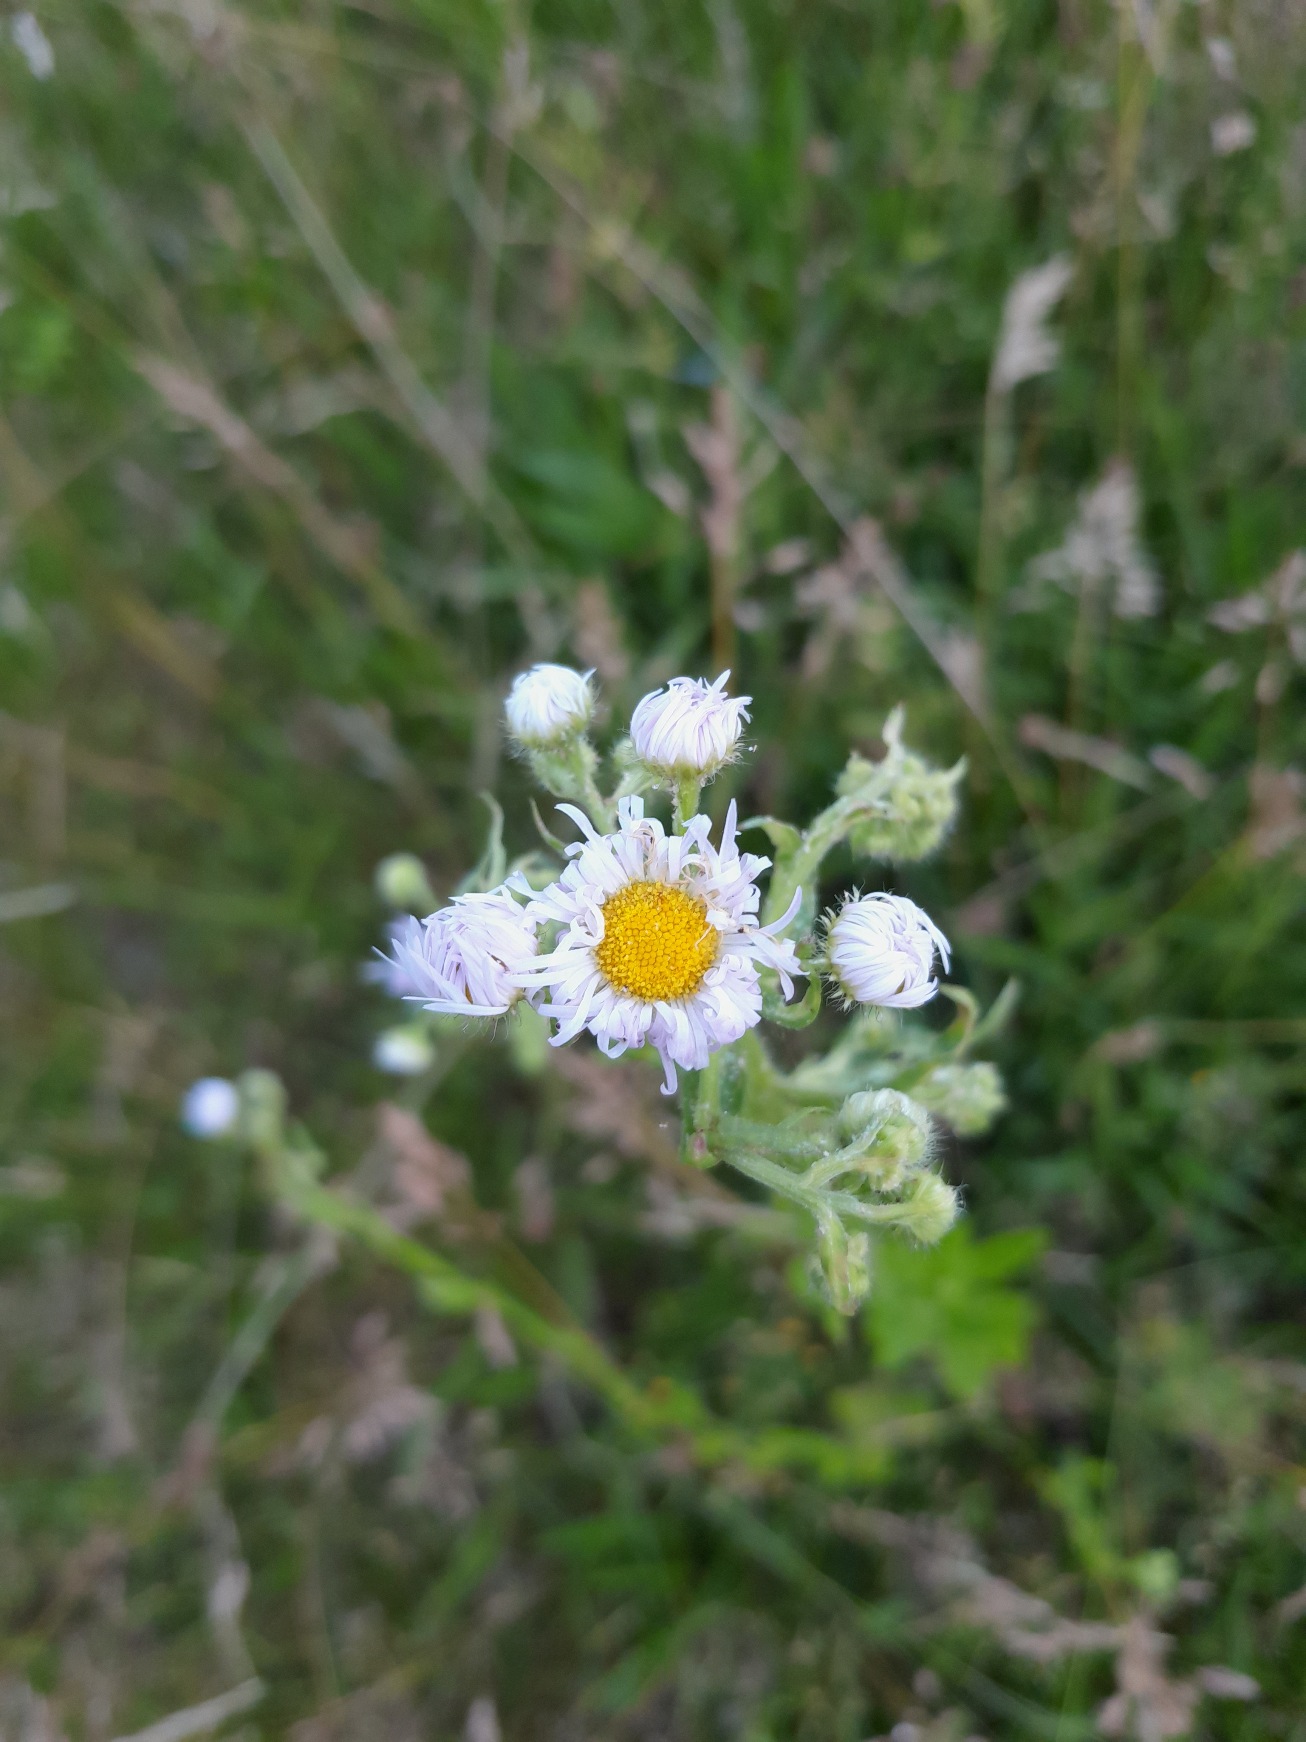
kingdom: Plantae
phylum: Tracheophyta
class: Magnoliopsida
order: Asterales
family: Asteraceae
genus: Erigeron
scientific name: Erigeron annuus
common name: Smalstråle
